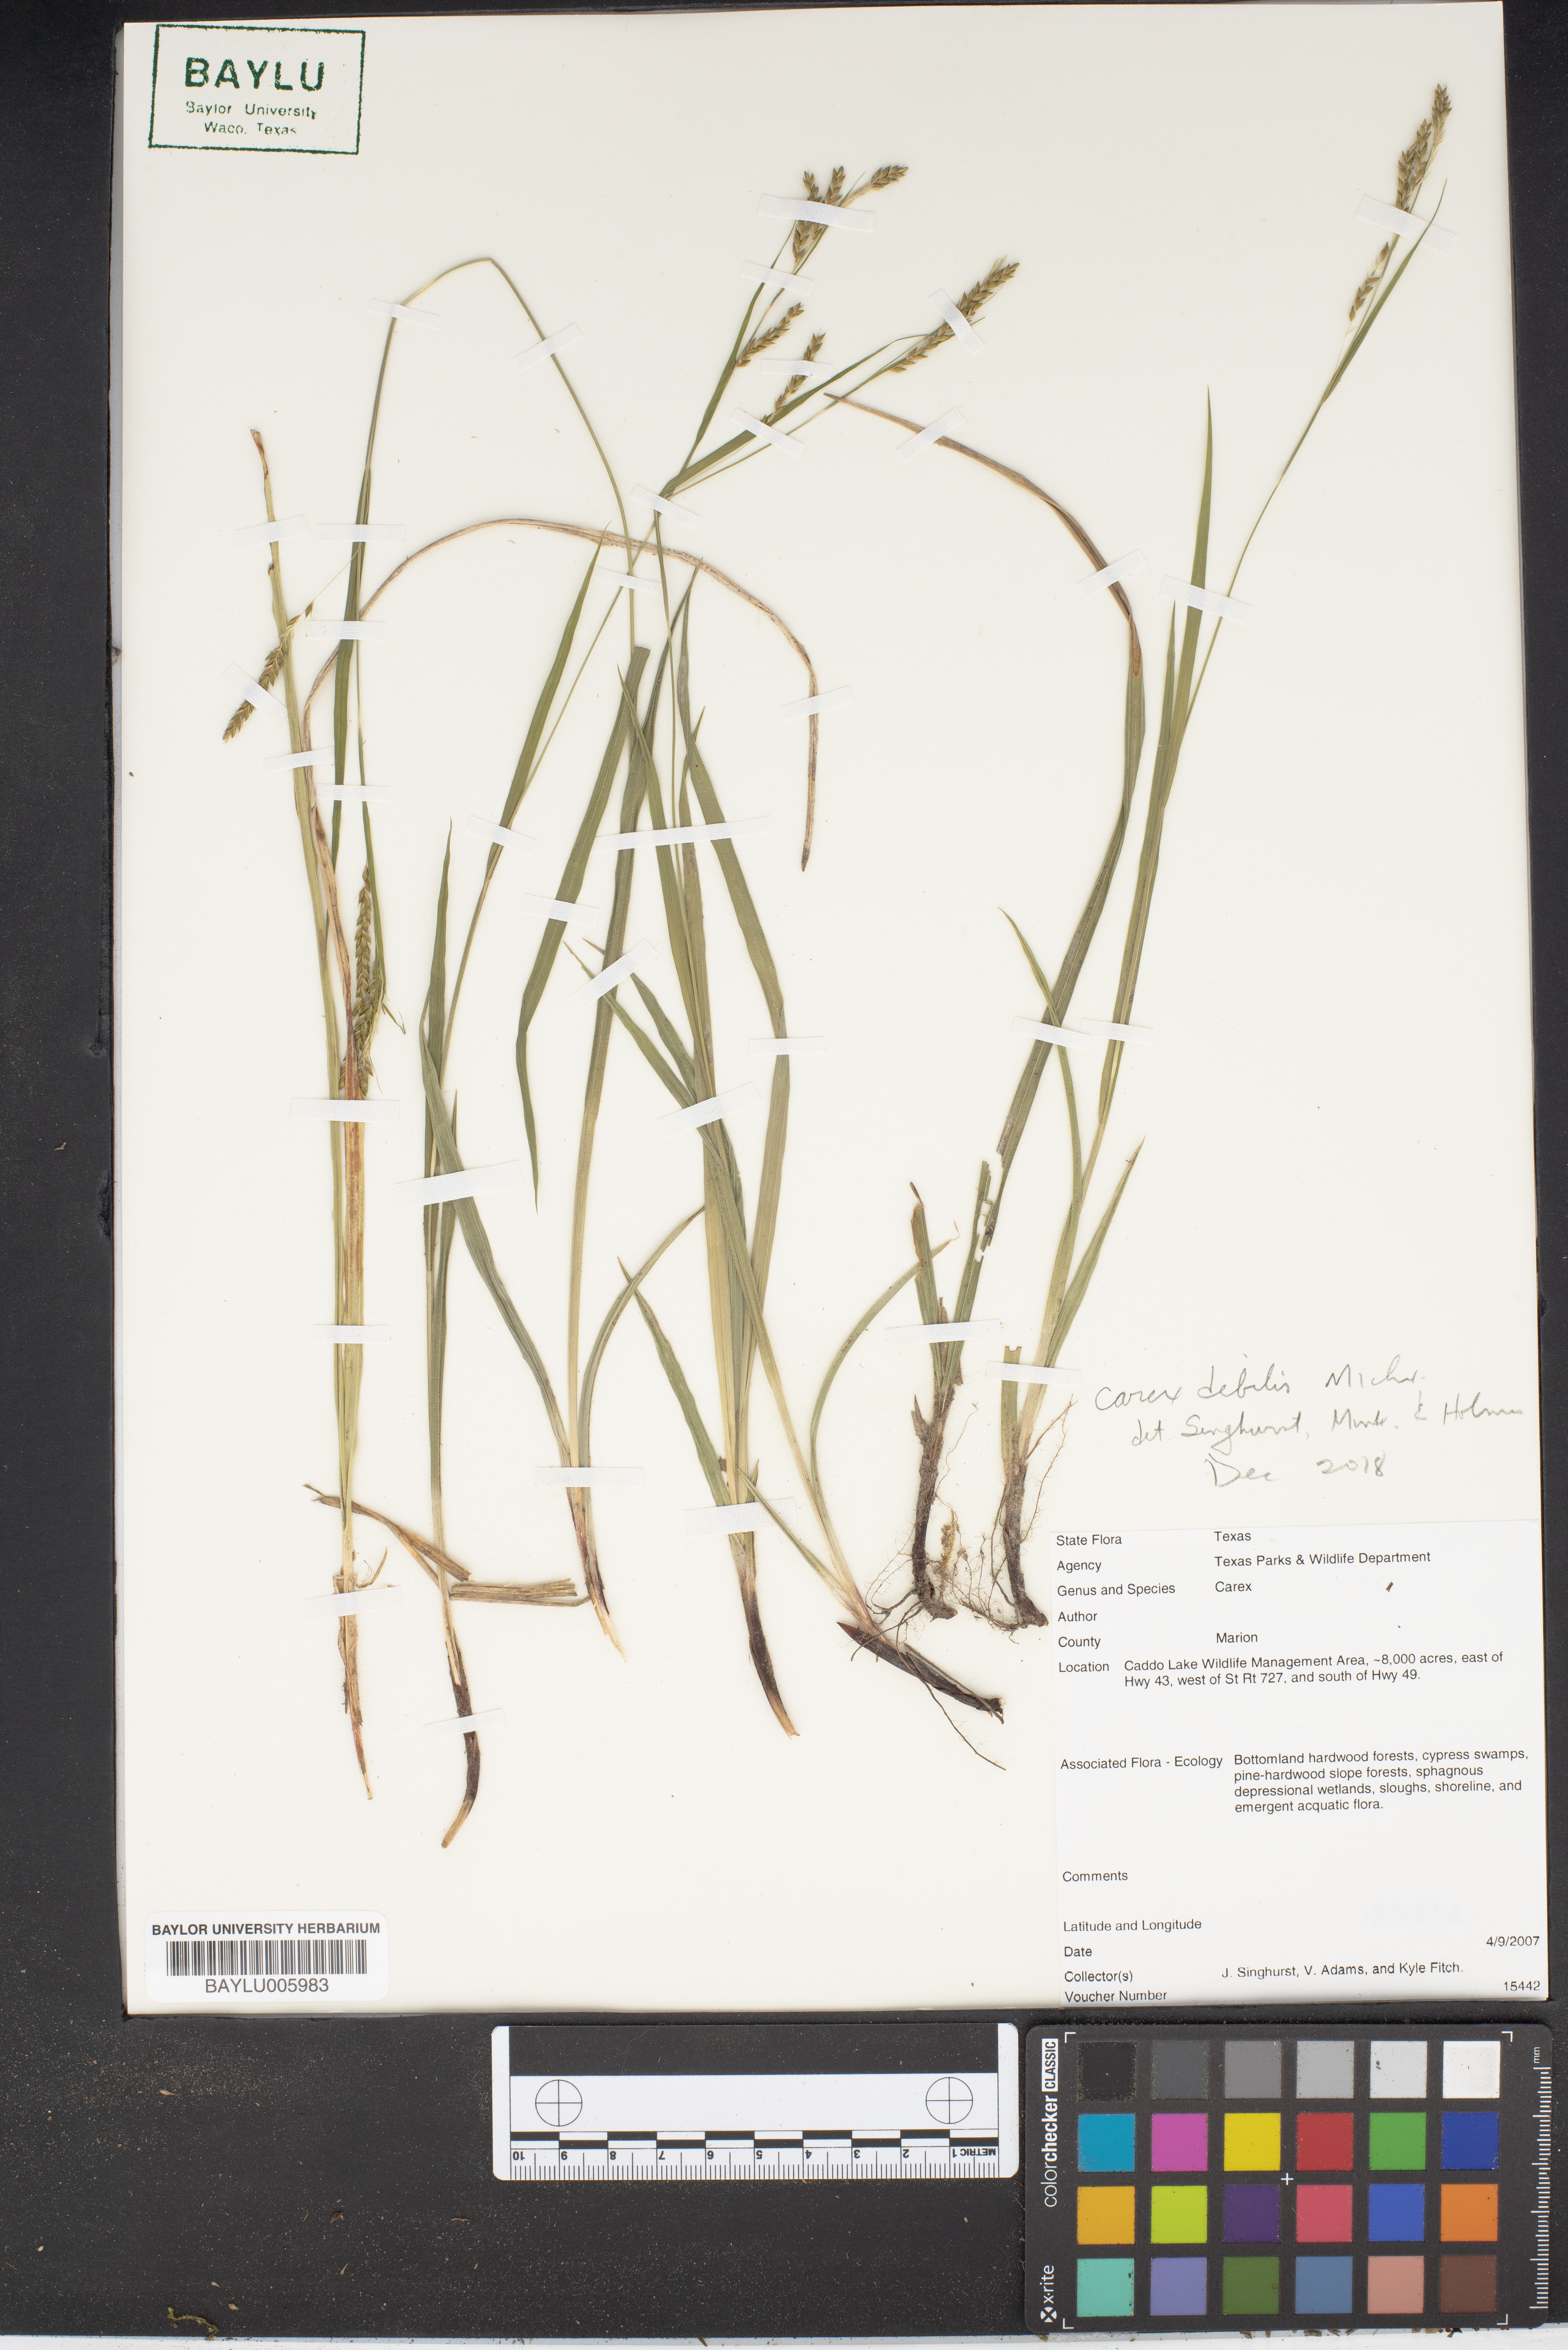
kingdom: Plantae
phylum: Tracheophyta
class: Liliopsida
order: Poales
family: Cyperaceae
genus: Carex
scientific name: Carex
